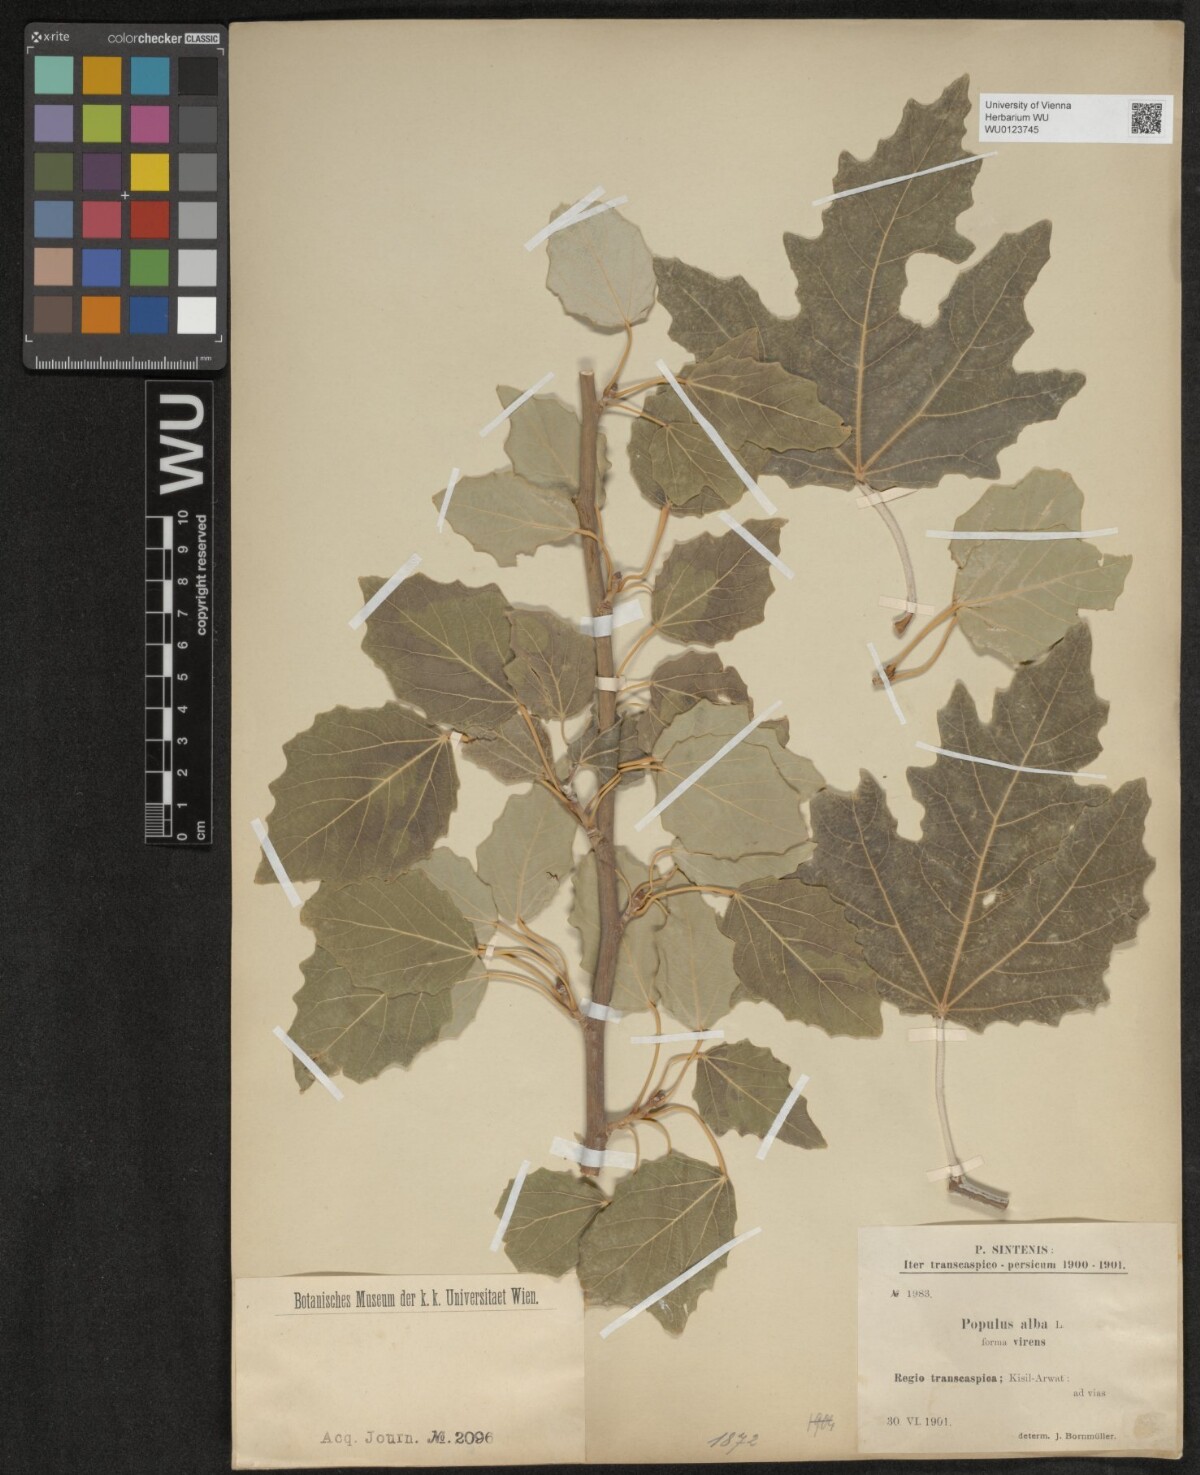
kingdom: Plantae
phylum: Tracheophyta
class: Magnoliopsida
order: Malpighiales
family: Salicaceae
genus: Populus
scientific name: Populus alba
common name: White poplar
